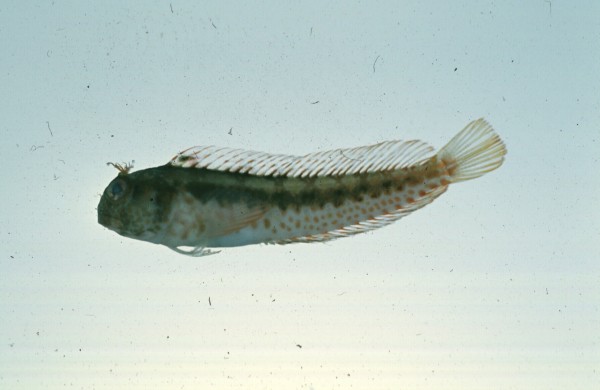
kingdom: Animalia
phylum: Chordata
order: Perciformes
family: Blenniidae
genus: Parablennius
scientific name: Parablennius pilicornis
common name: Ringneck blenny
